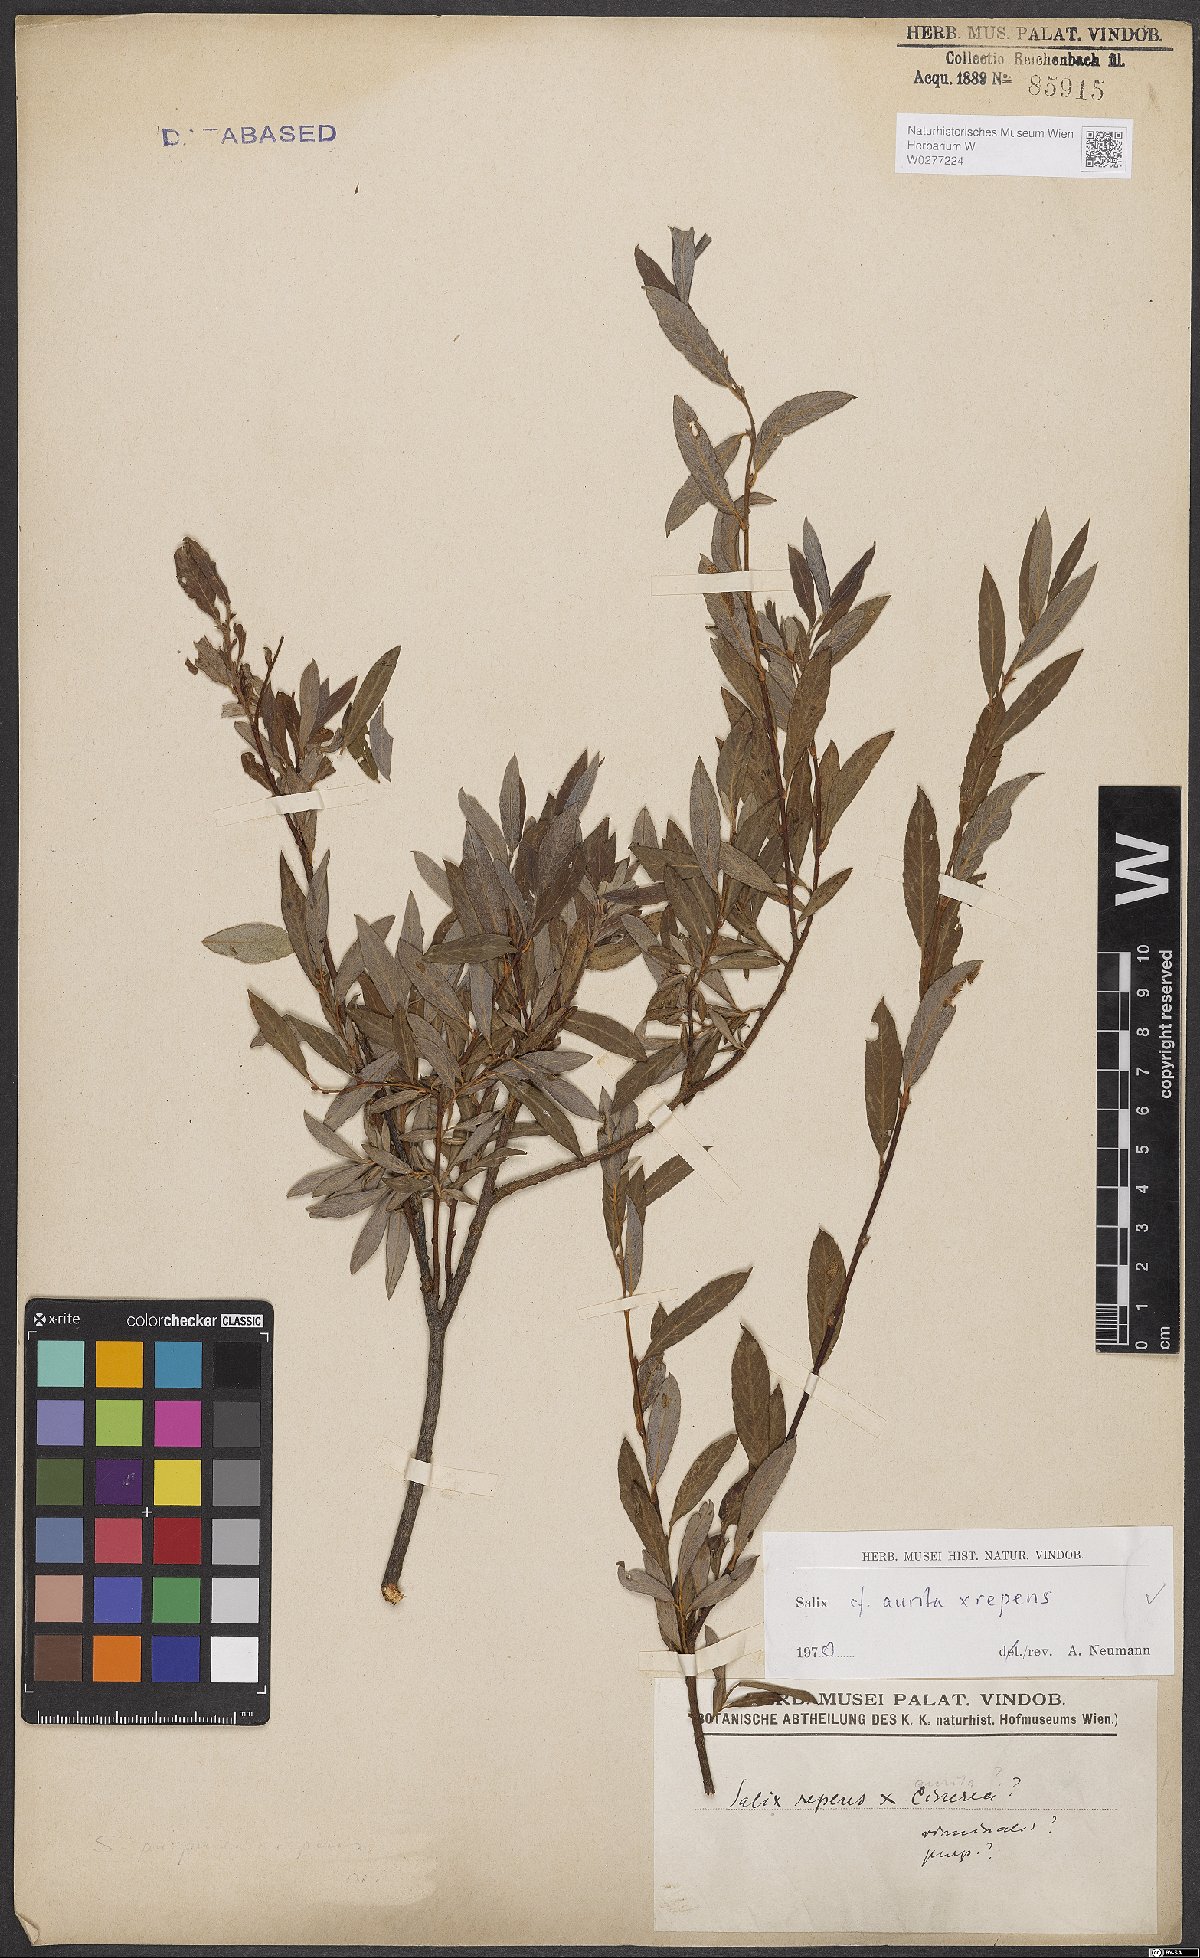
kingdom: Plantae
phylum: Tracheophyta
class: Magnoliopsida
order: Malpighiales
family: Salicaceae
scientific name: Salicaceae
